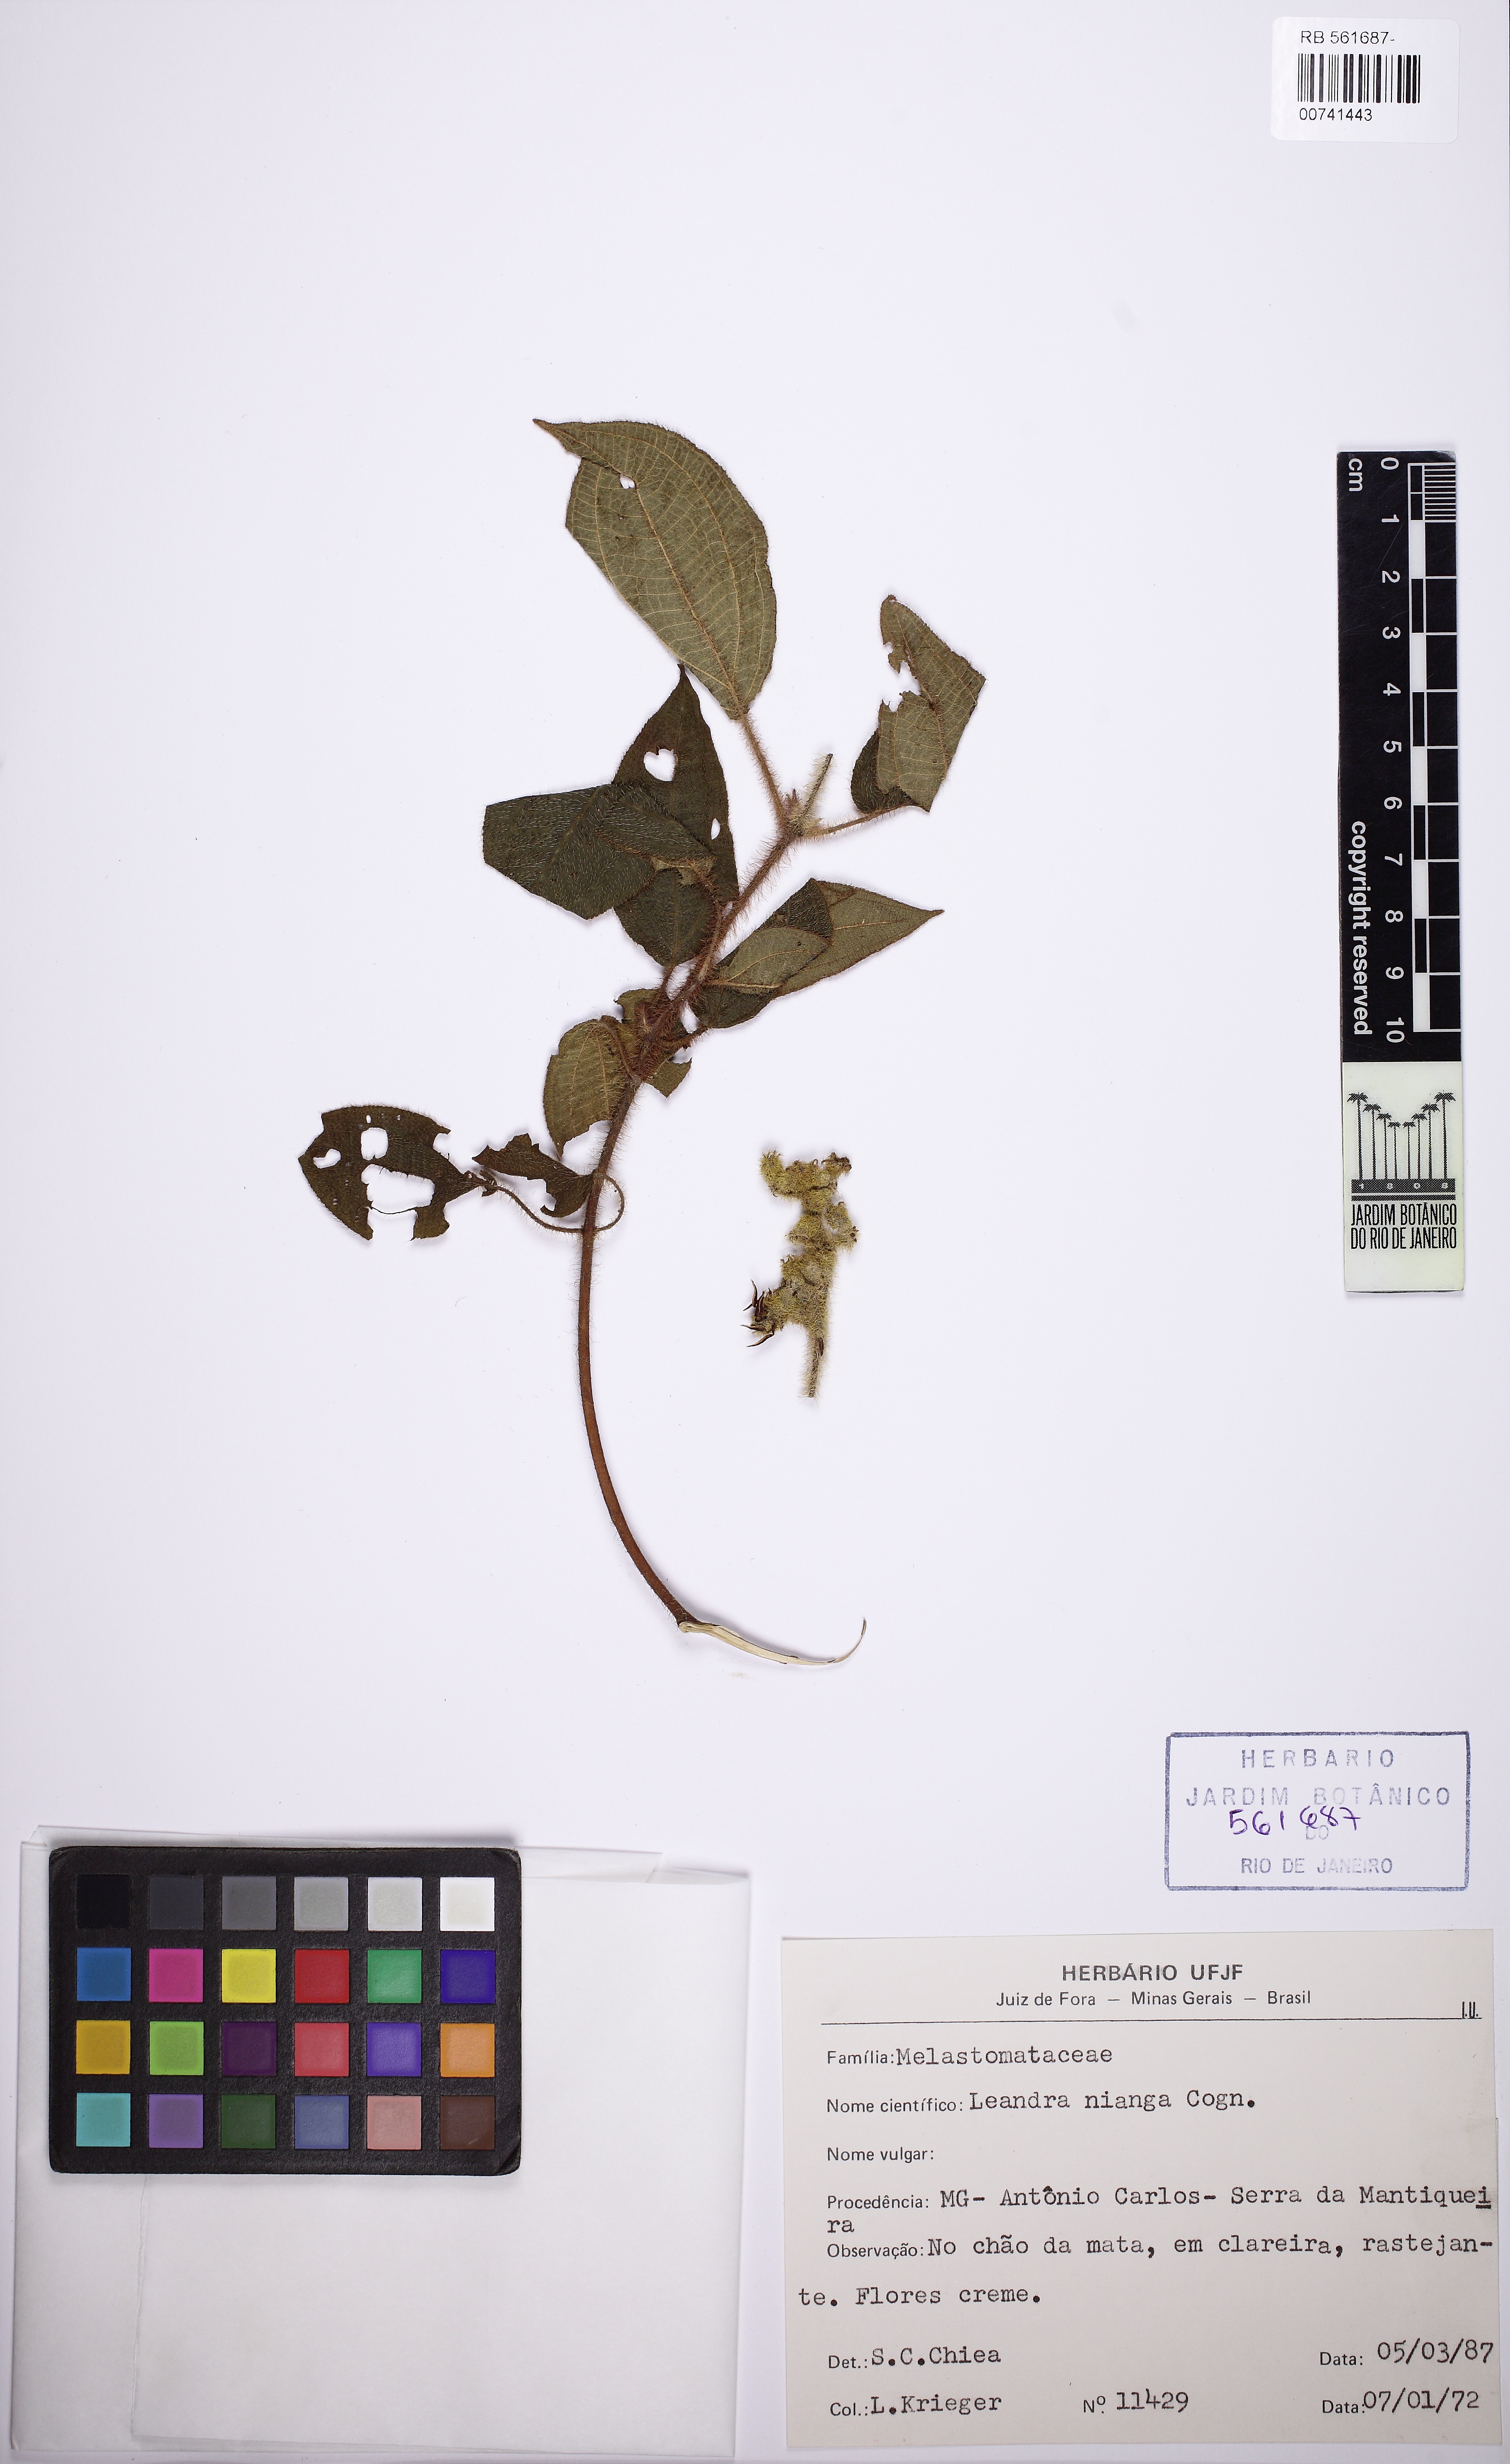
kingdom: Plantae
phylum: Tracheophyta
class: Magnoliopsida
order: Myrtales
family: Melastomataceae
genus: Miconia
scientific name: Miconia nianga
